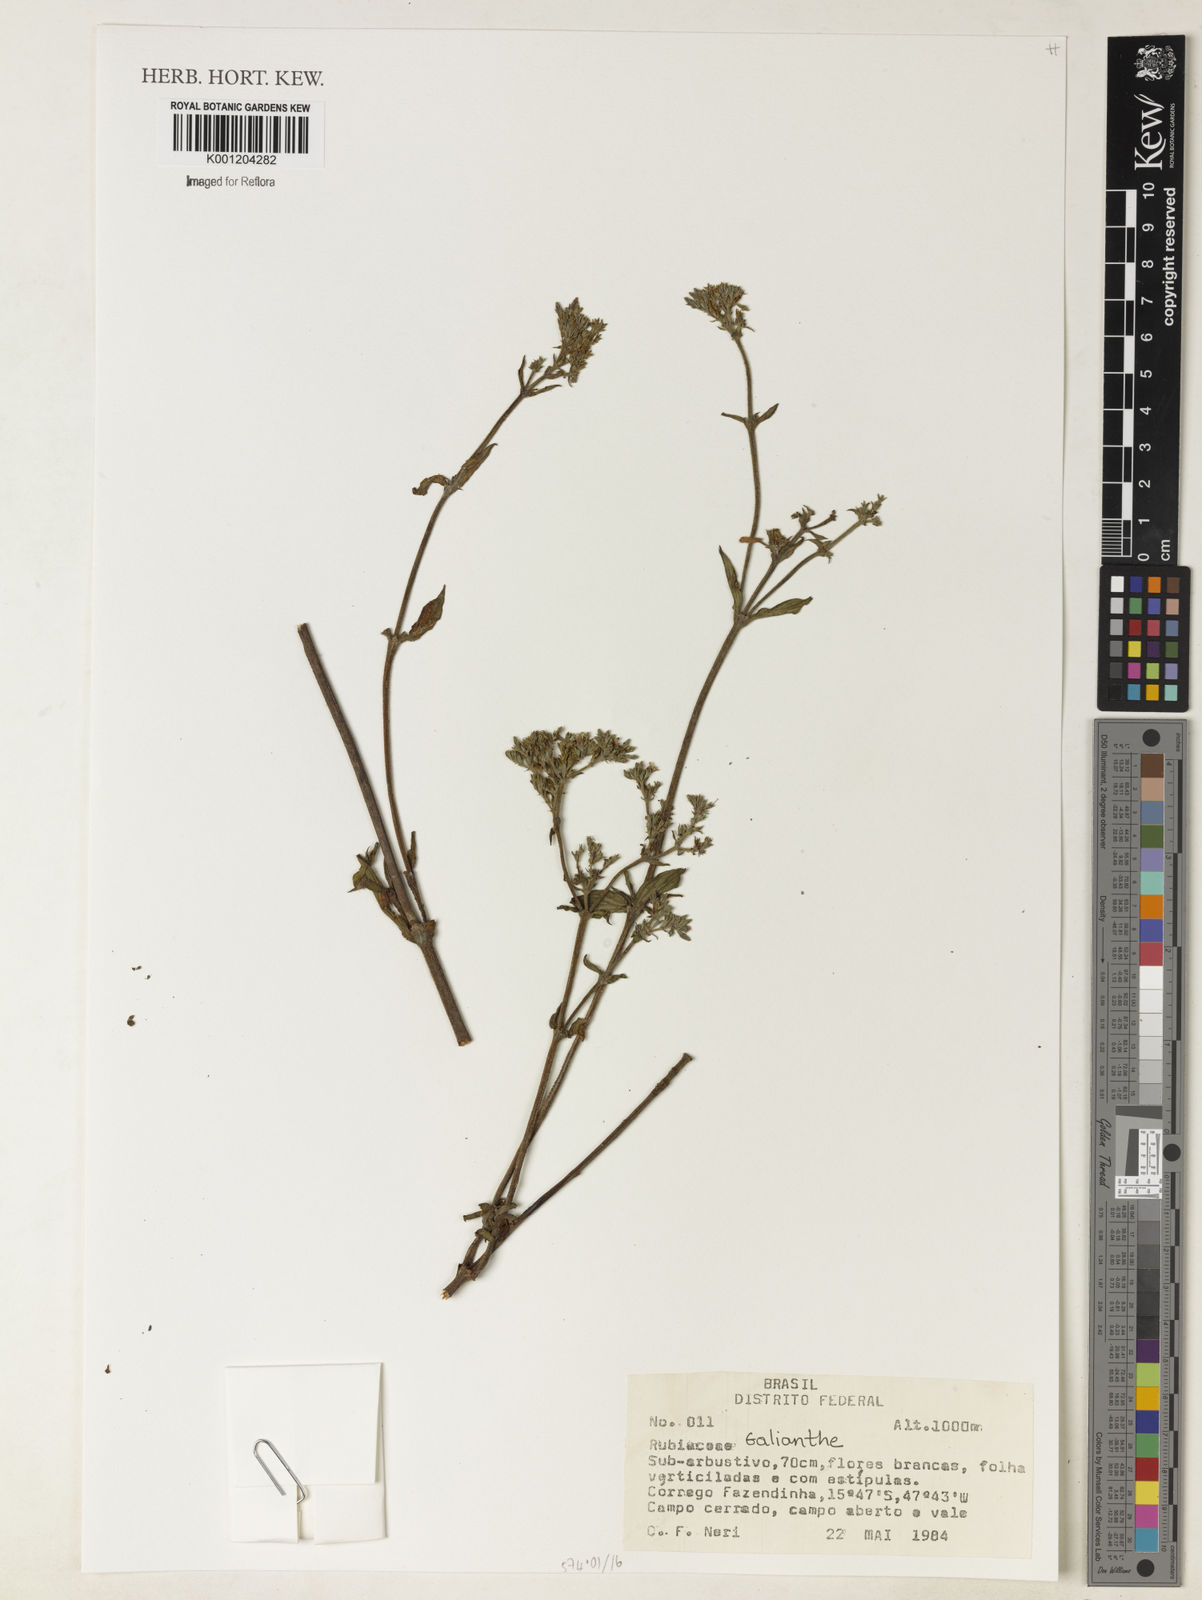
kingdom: Plantae
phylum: Tracheophyta
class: Magnoliopsida
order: Gentianales
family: Rubiaceae
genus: Galianthe
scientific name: Galianthe
